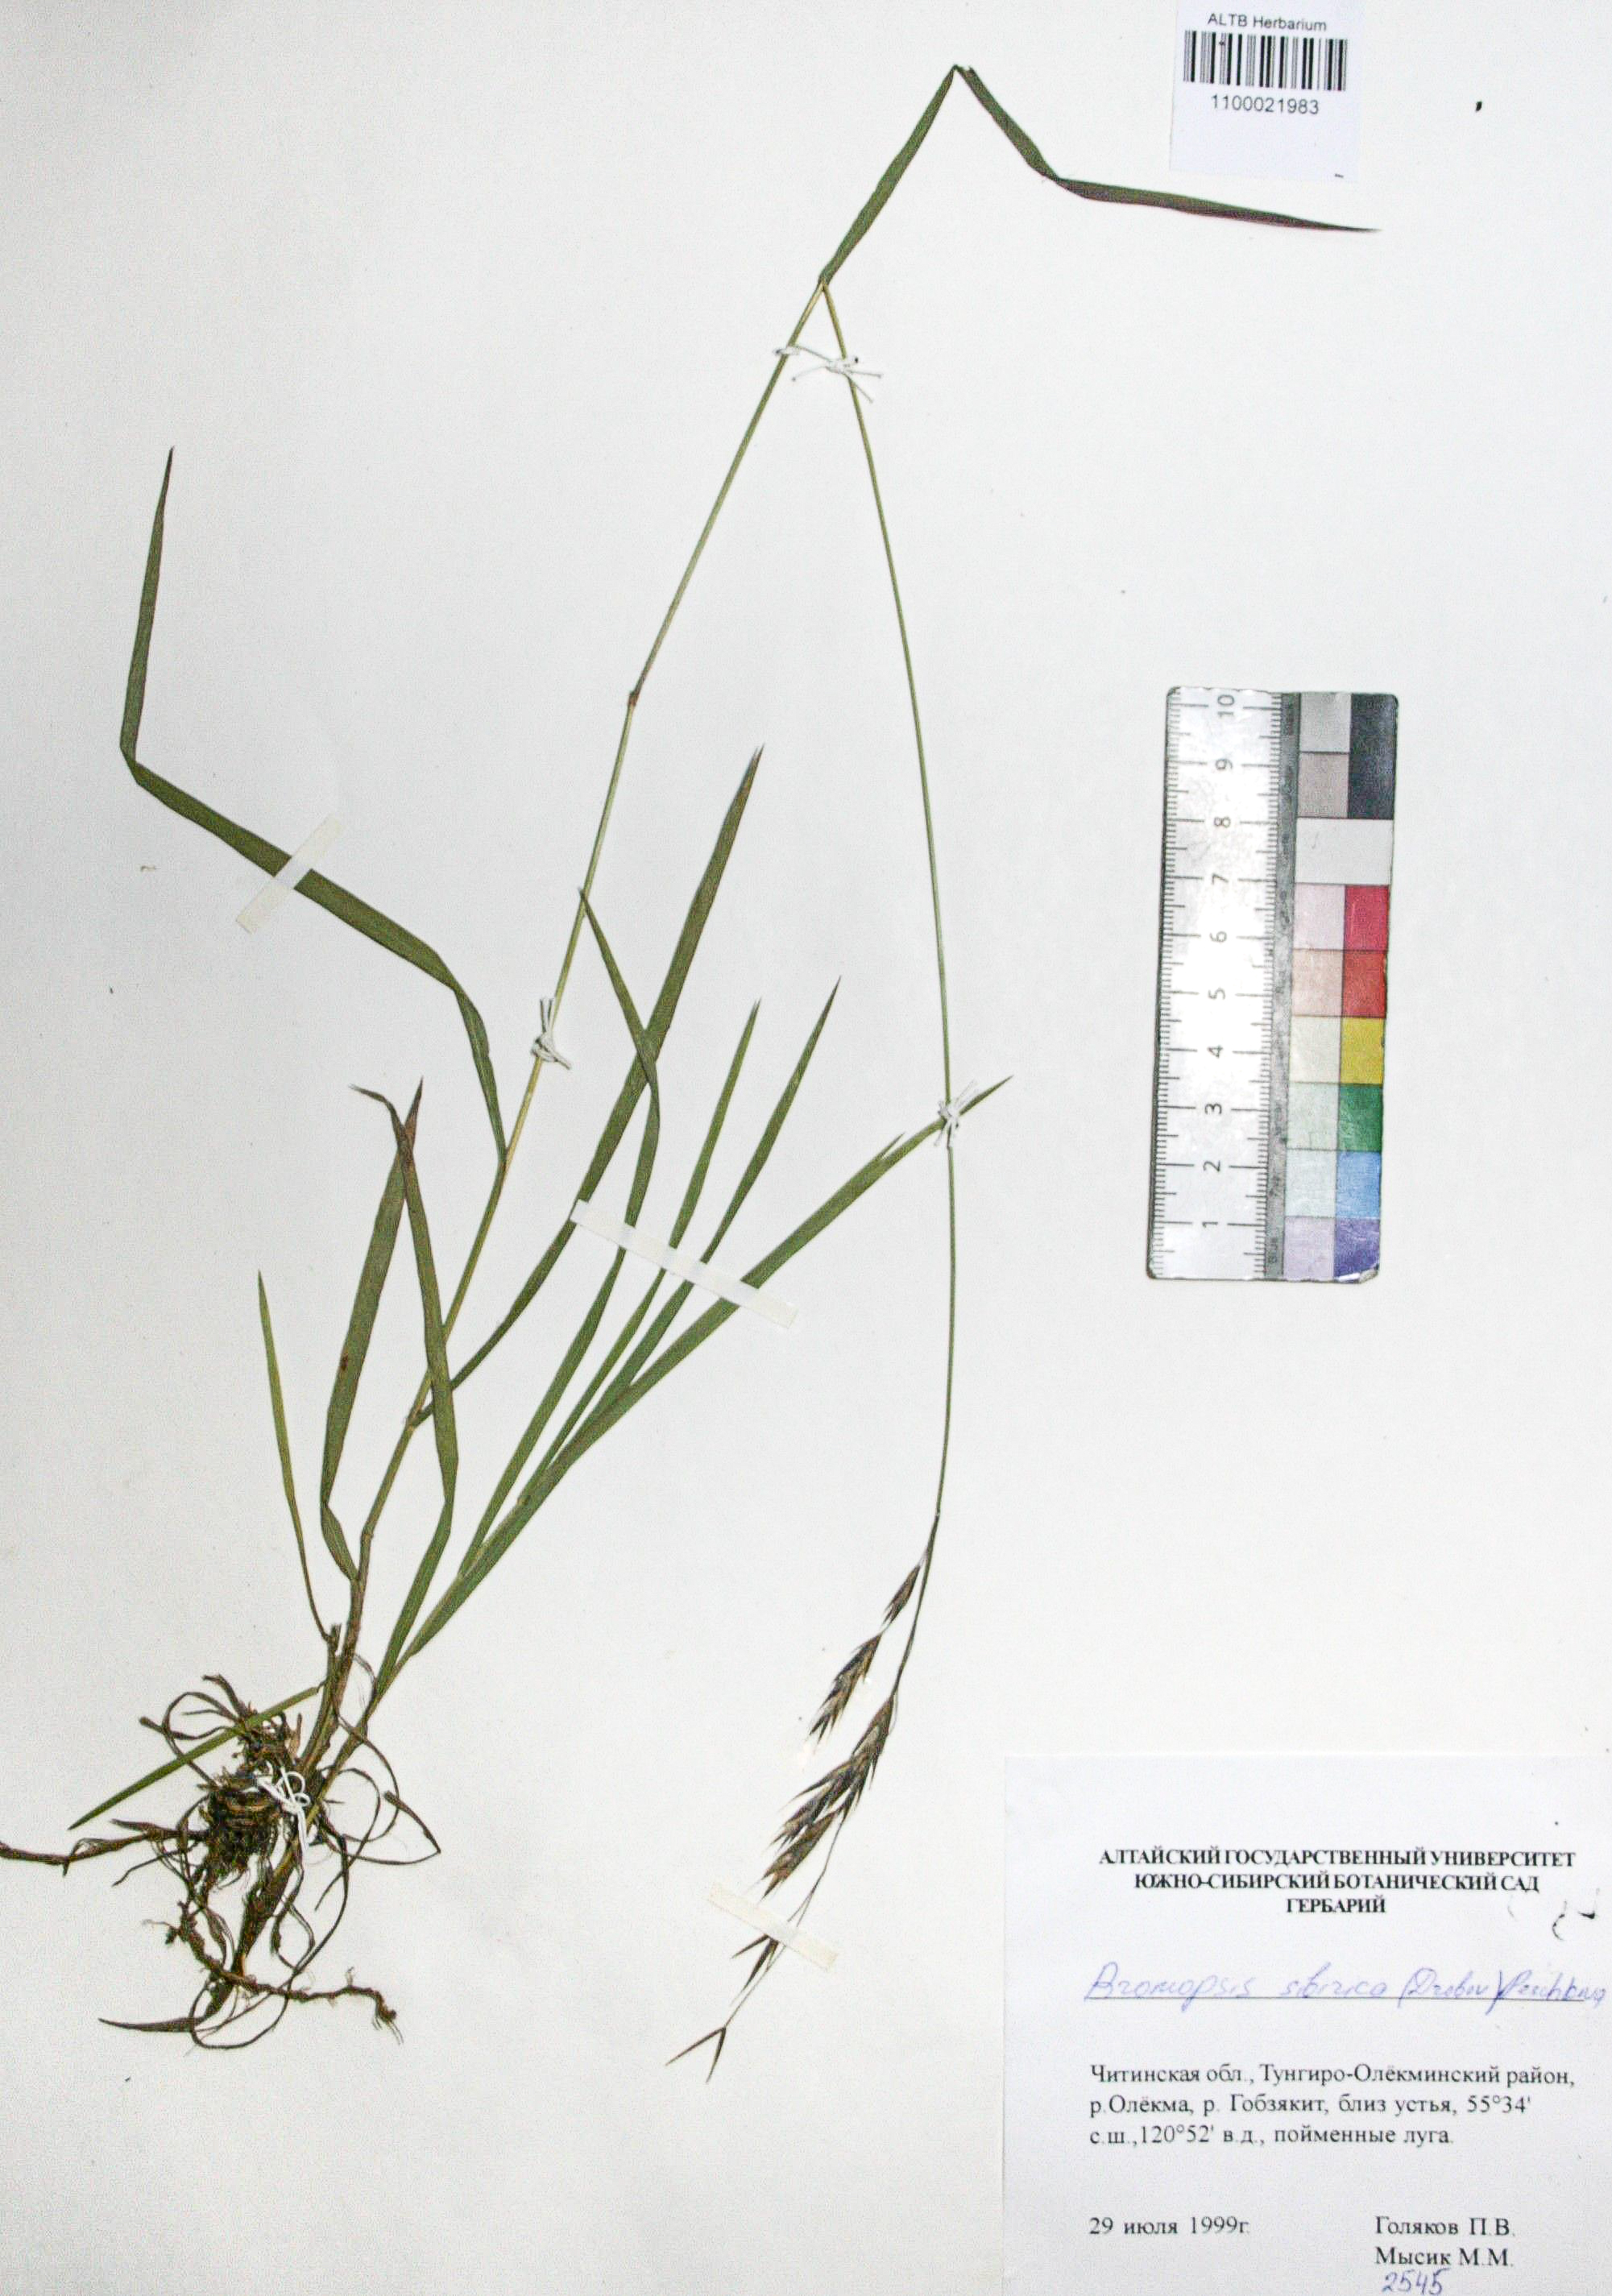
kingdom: Plantae
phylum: Tracheophyta
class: Liliopsida
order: Poales
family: Poaceae
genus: Bromus
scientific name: Bromus pumpellianus
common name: Pumpelly's brome
